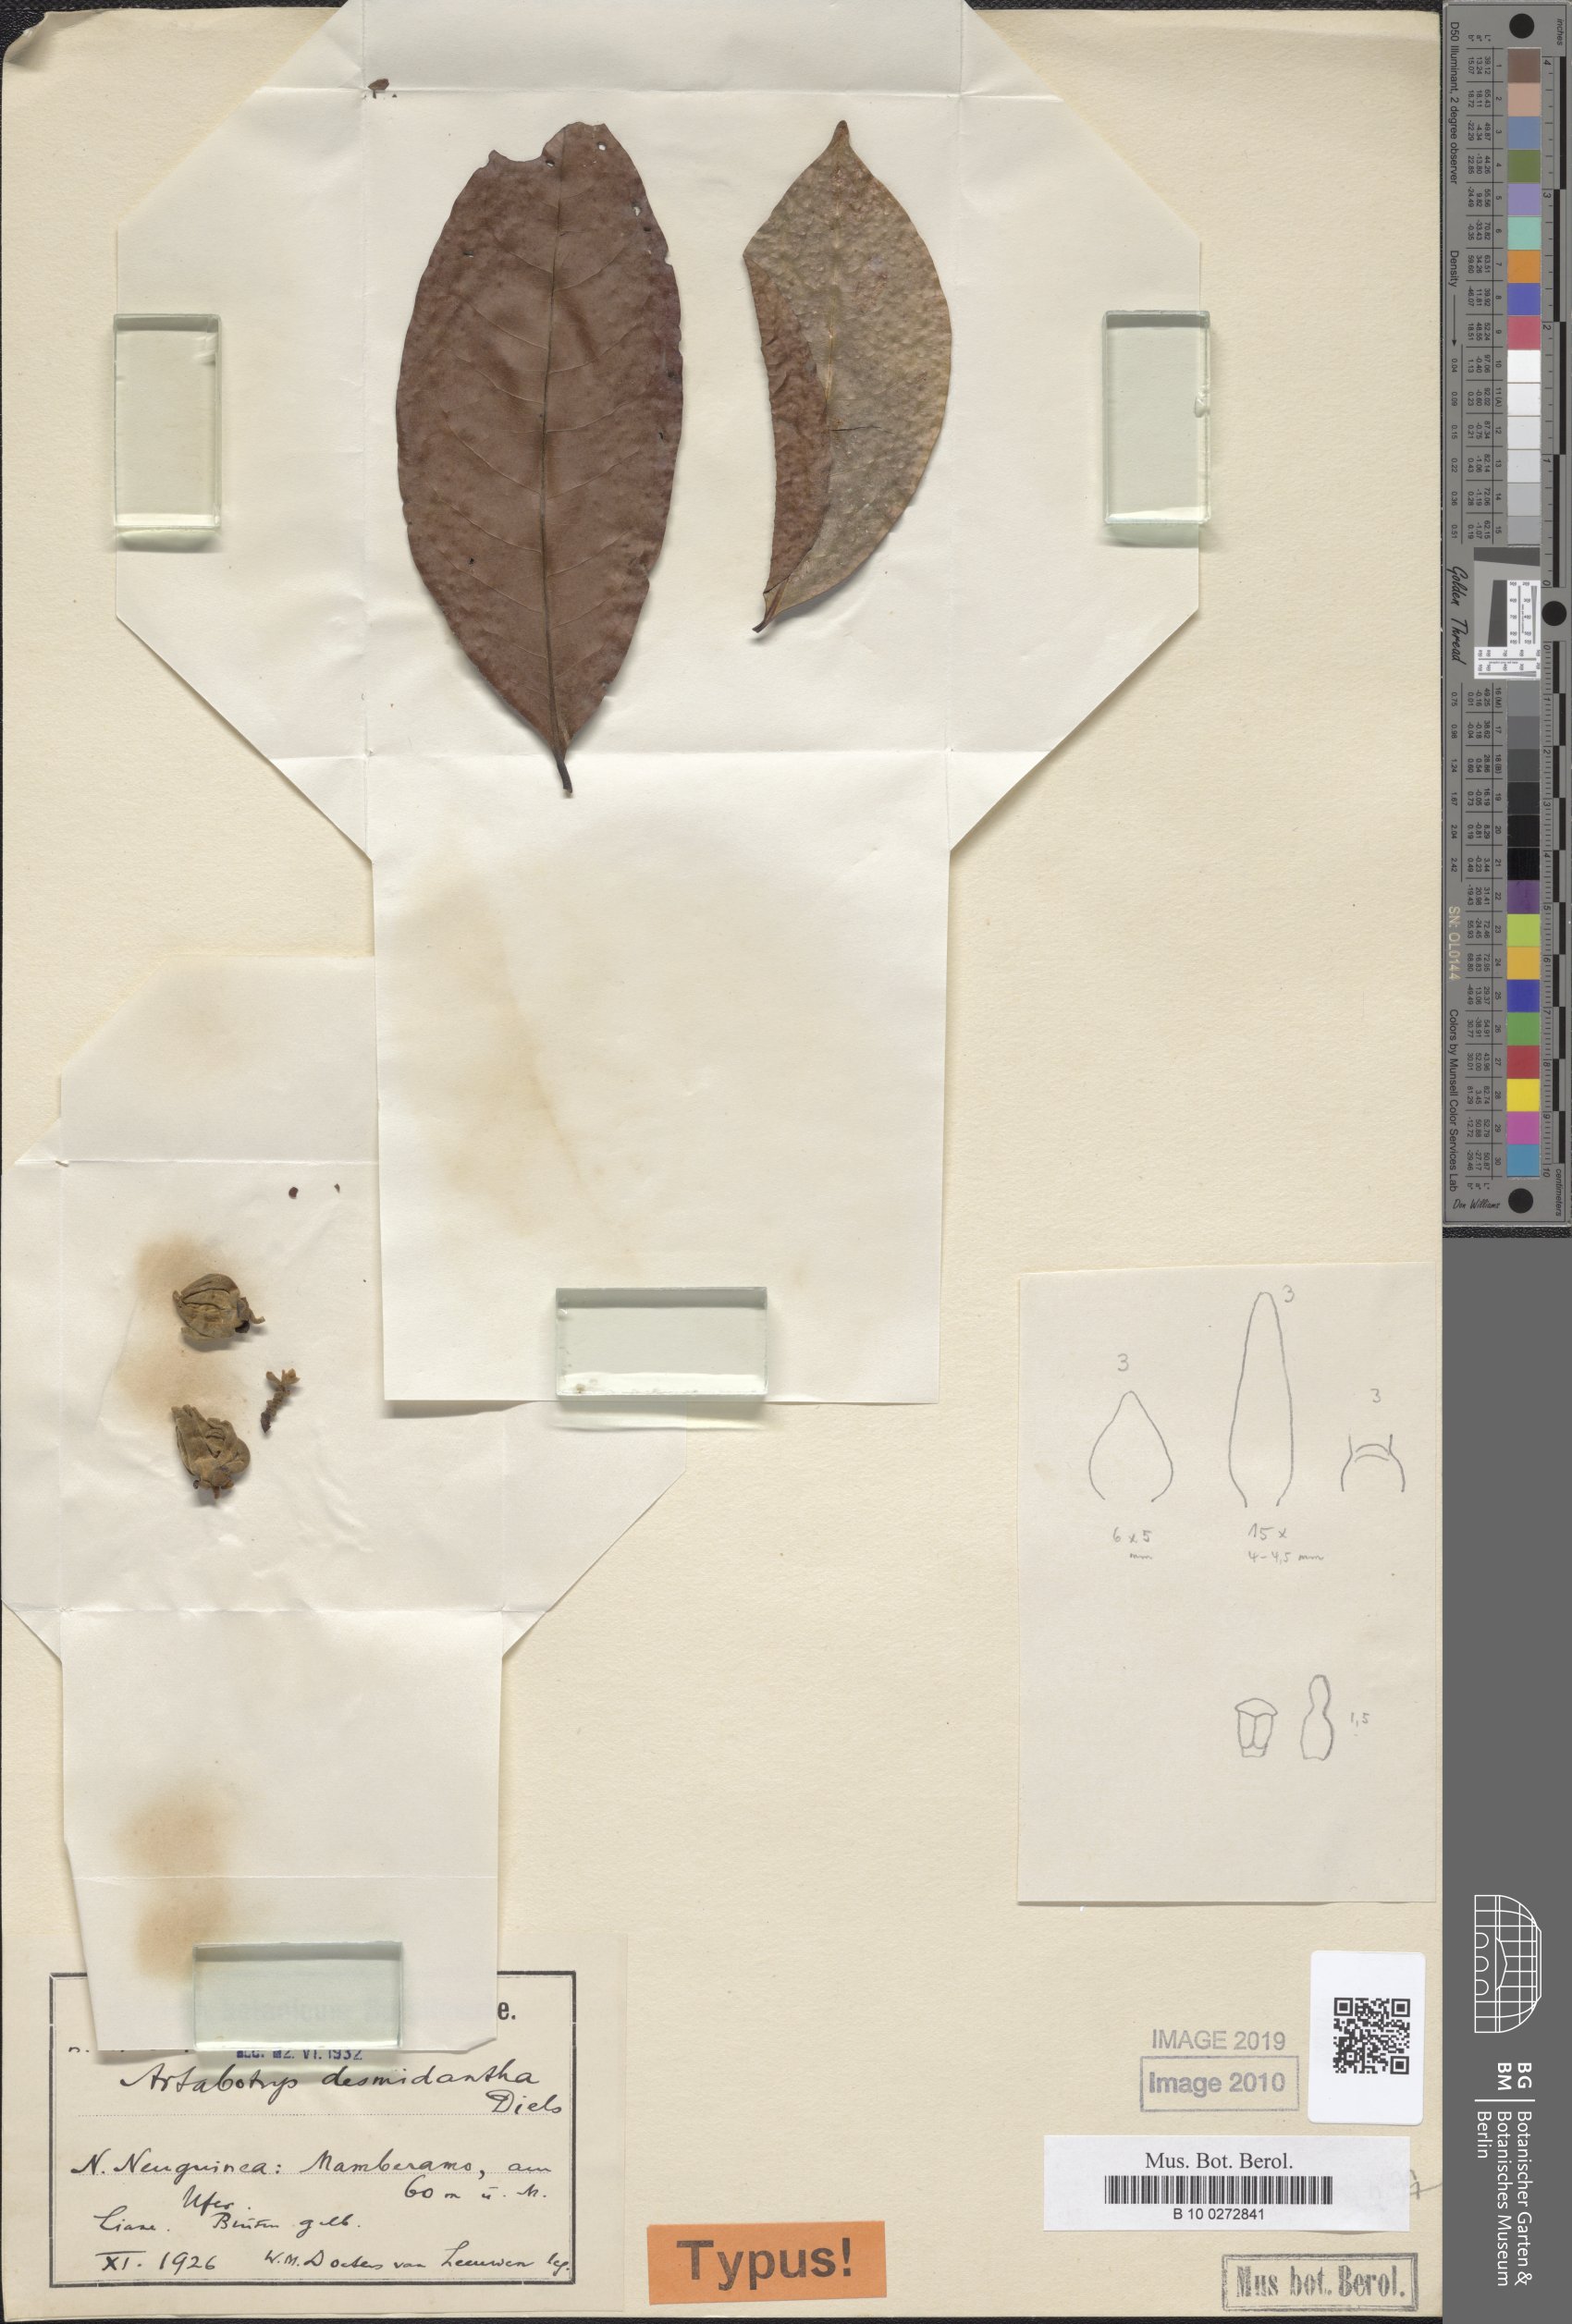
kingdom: Plantae
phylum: Tracheophyta
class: Magnoliopsida
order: Magnoliales
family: Annonaceae
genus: Artabotrys
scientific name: Artabotrys
